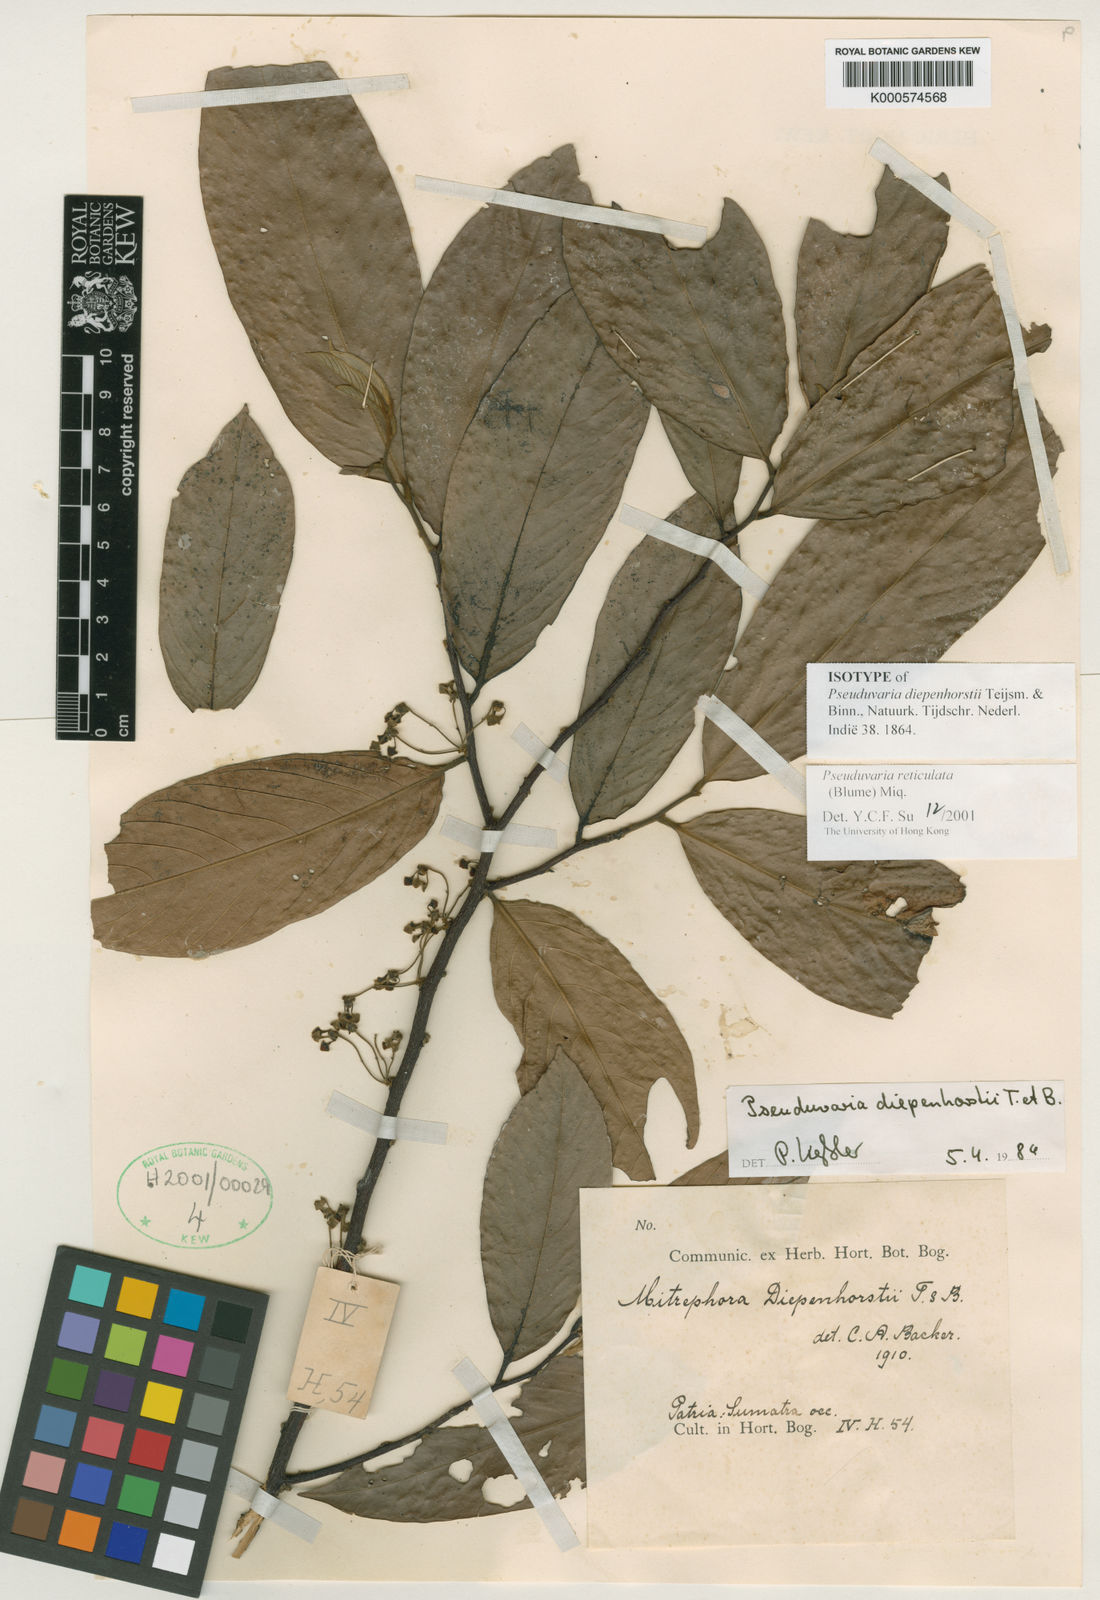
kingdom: Plantae
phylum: Tracheophyta
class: Magnoliopsida
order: Magnoliales
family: Annonaceae
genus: Pseuduvaria
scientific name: Pseuduvaria reticulata
